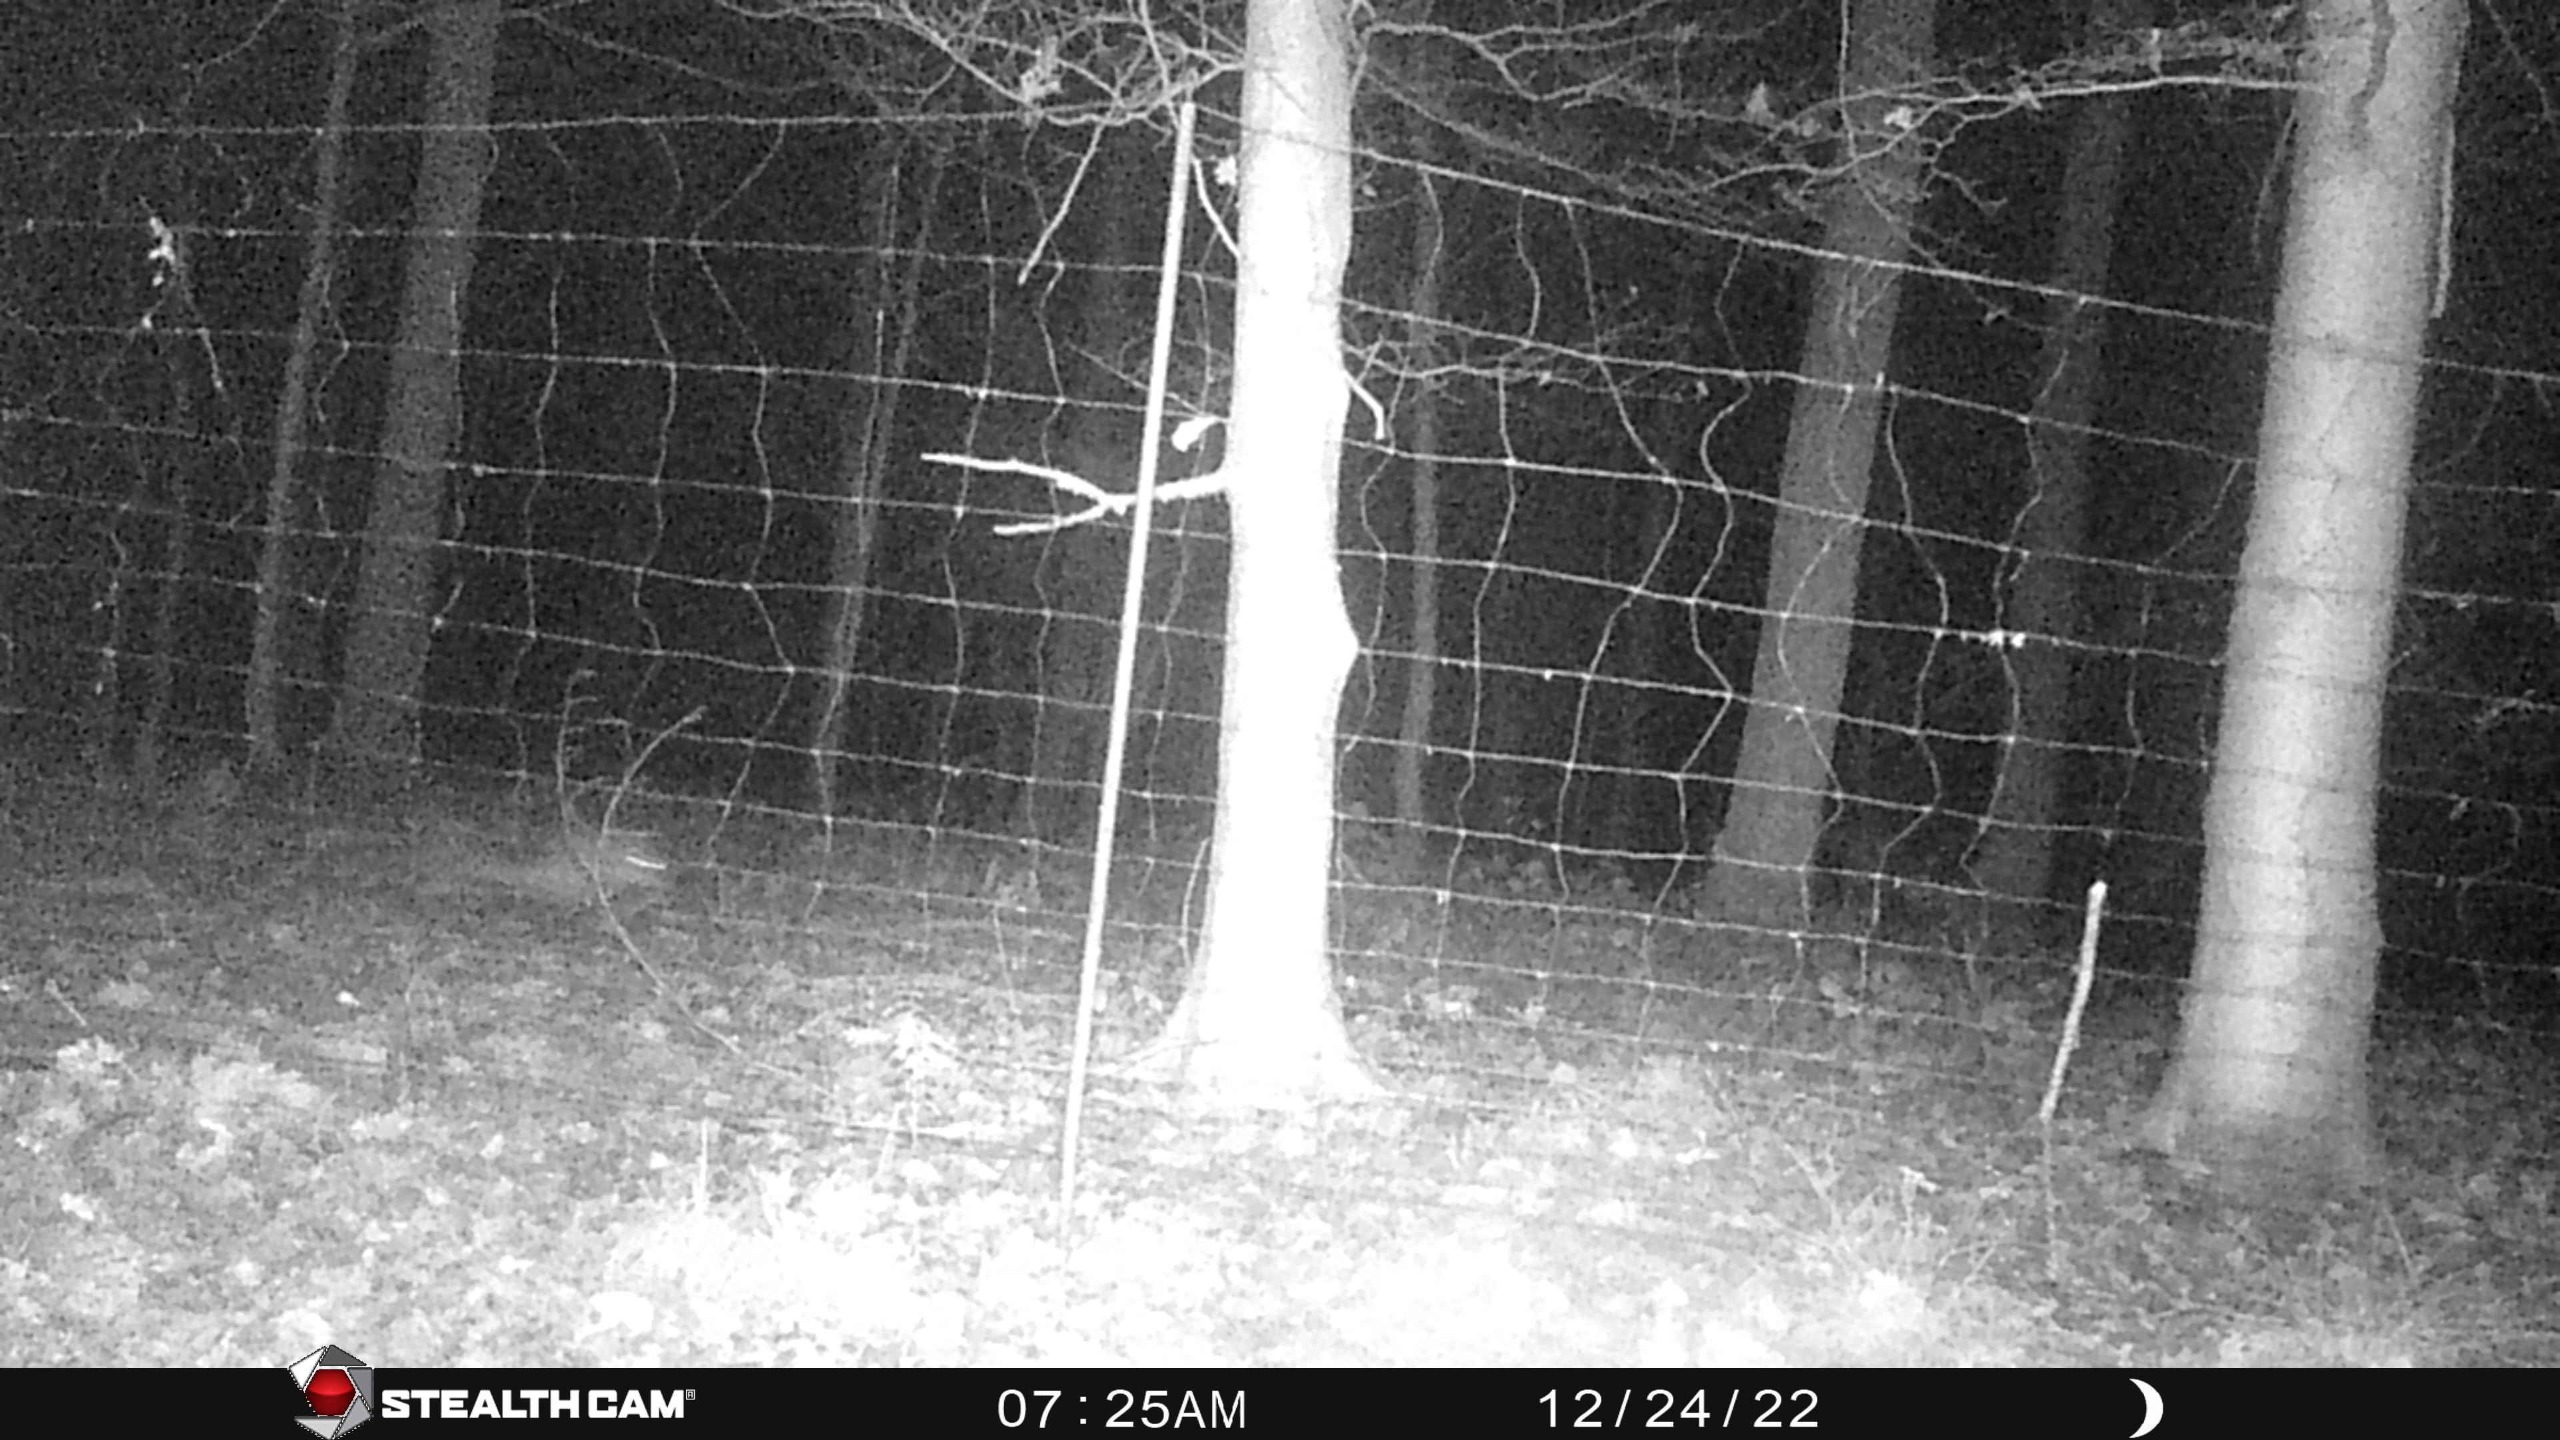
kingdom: Animalia
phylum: Chordata
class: Mammalia
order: Carnivora
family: Canidae
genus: Vulpes
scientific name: Vulpes vulpes
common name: Ræv
